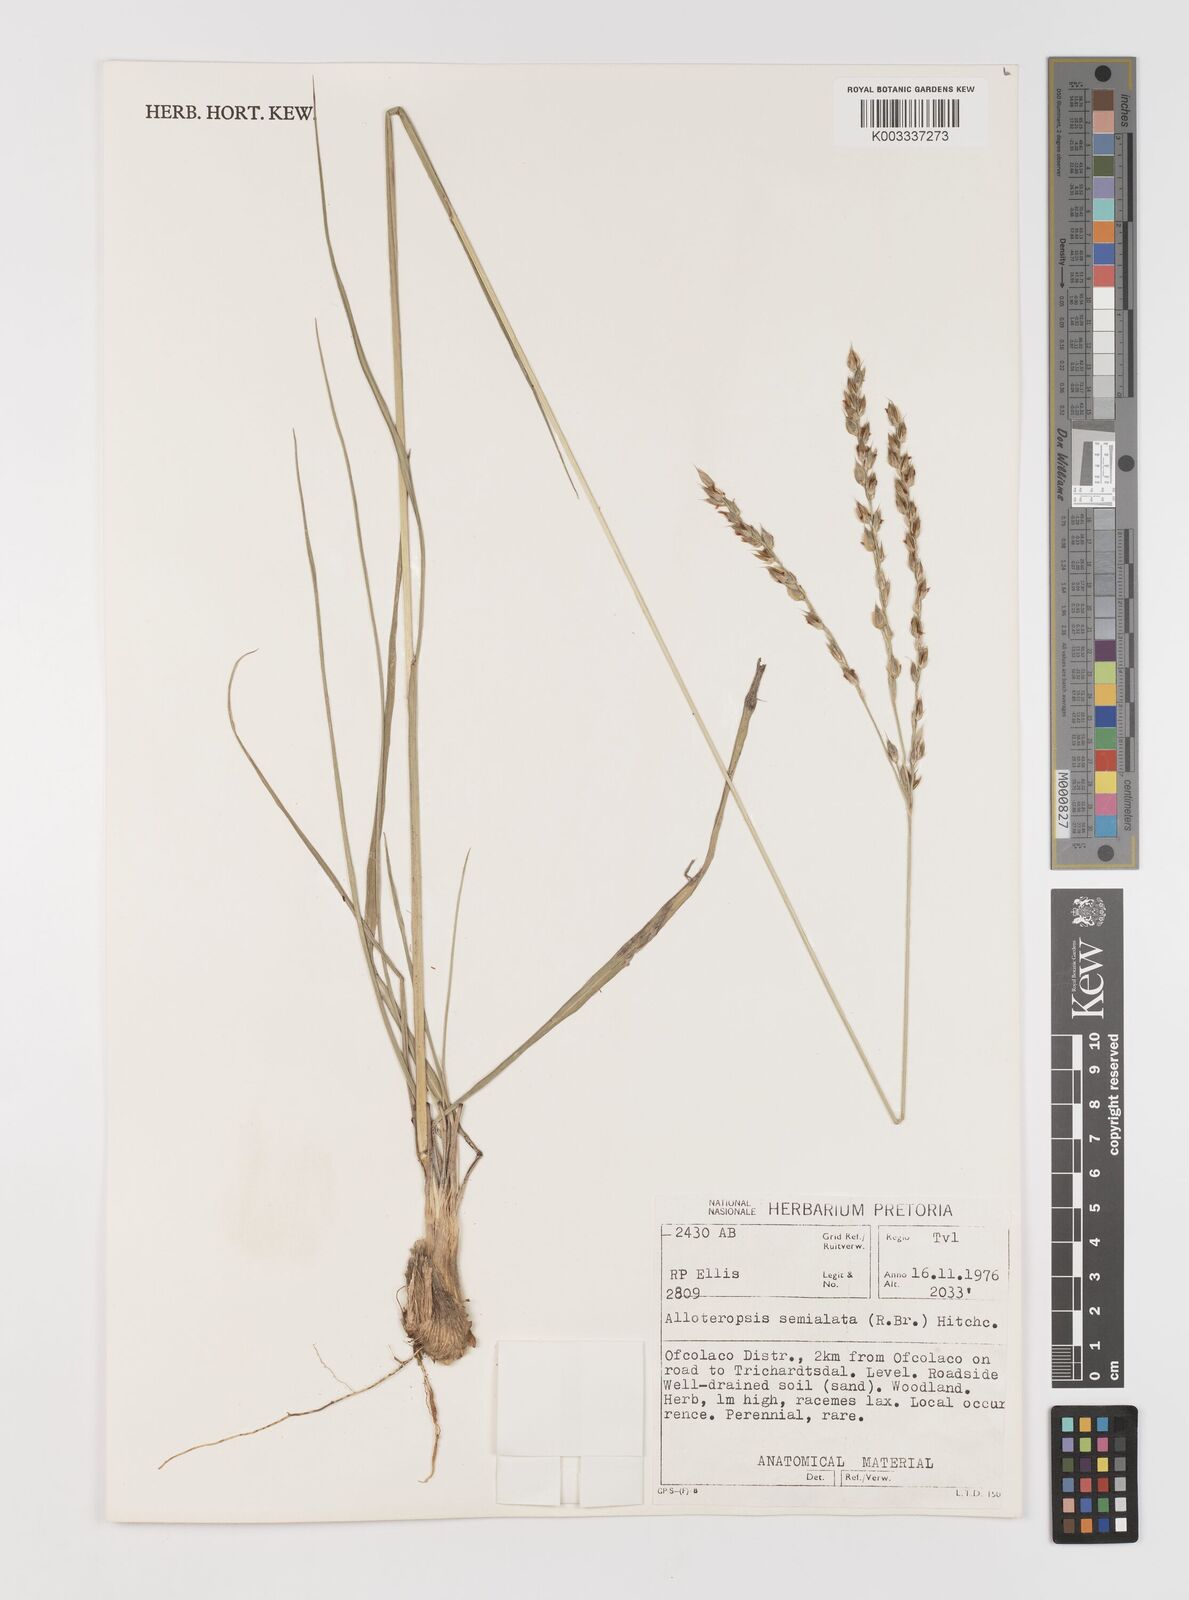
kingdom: Plantae
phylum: Tracheophyta
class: Liliopsida
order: Poales
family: Poaceae
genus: Alloteropsis
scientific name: Alloteropsis semialata
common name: Cockatoo grass
